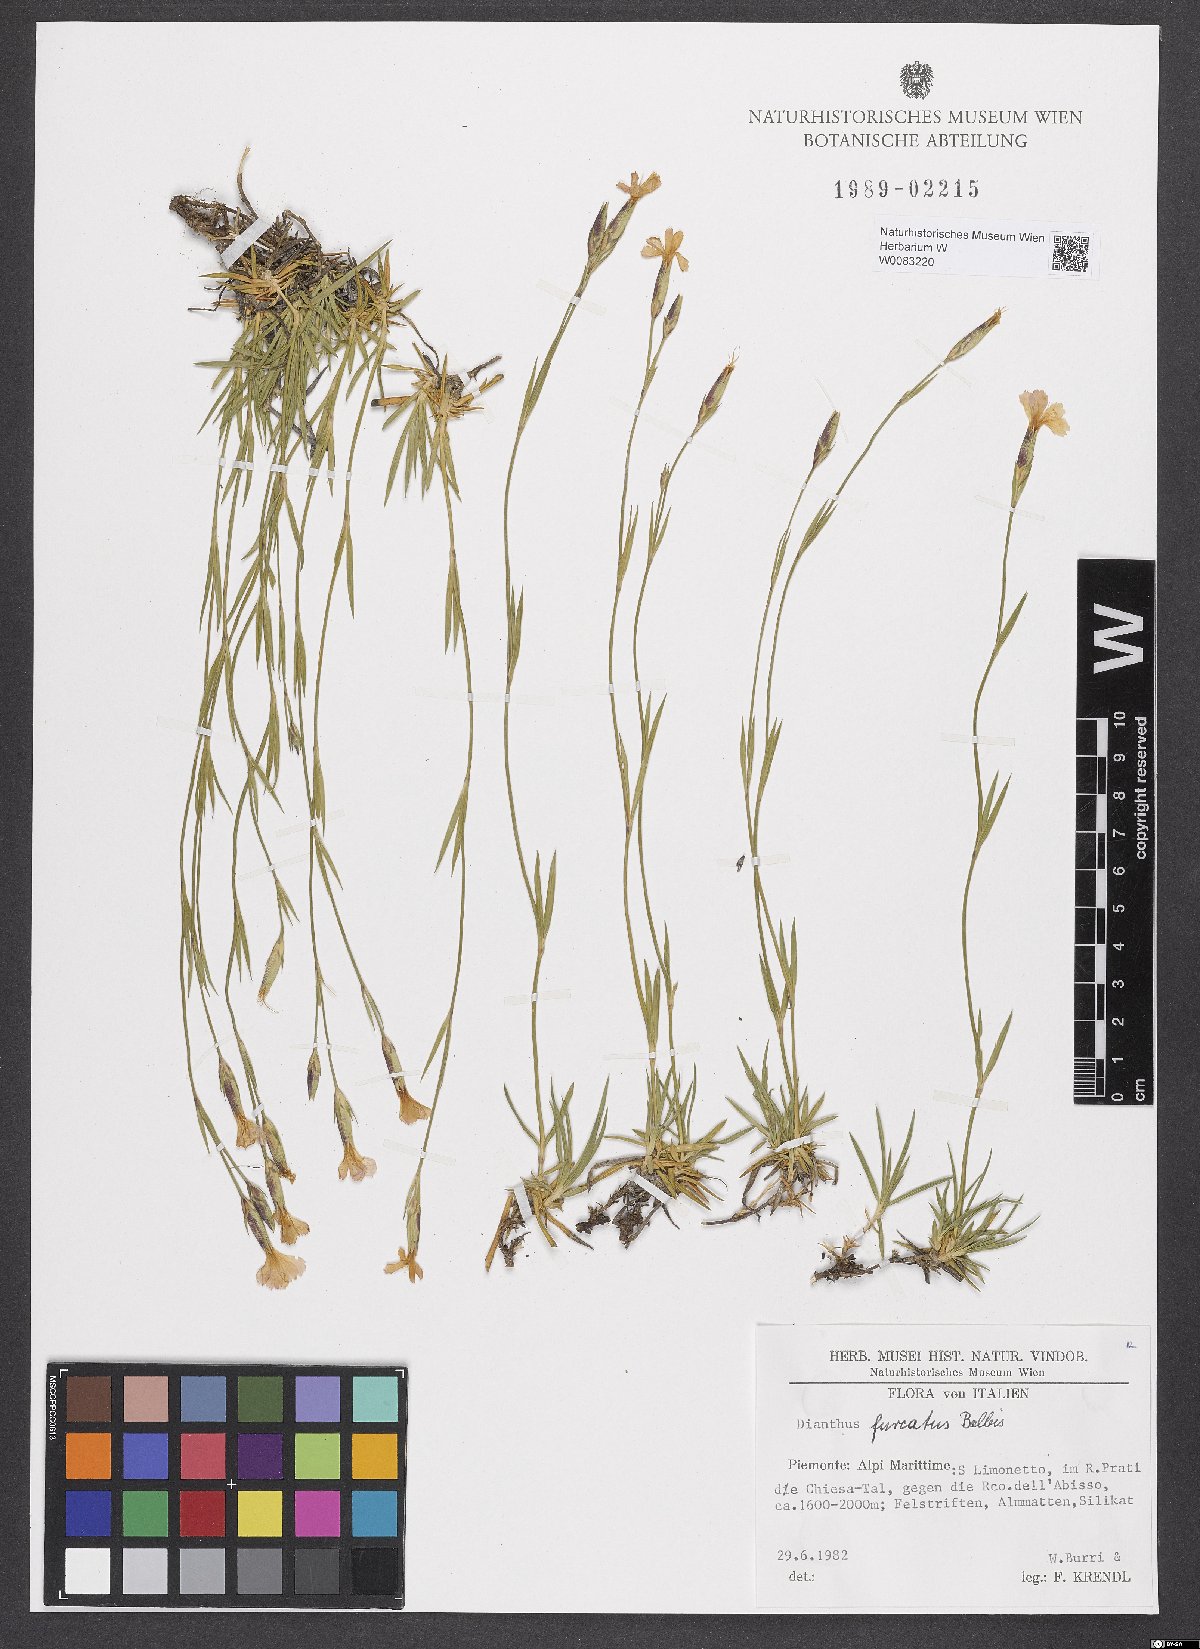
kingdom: Plantae
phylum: Tracheophyta
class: Magnoliopsida
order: Caryophyllales
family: Caryophyllaceae
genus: Dianthus
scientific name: Dianthus furcatus
